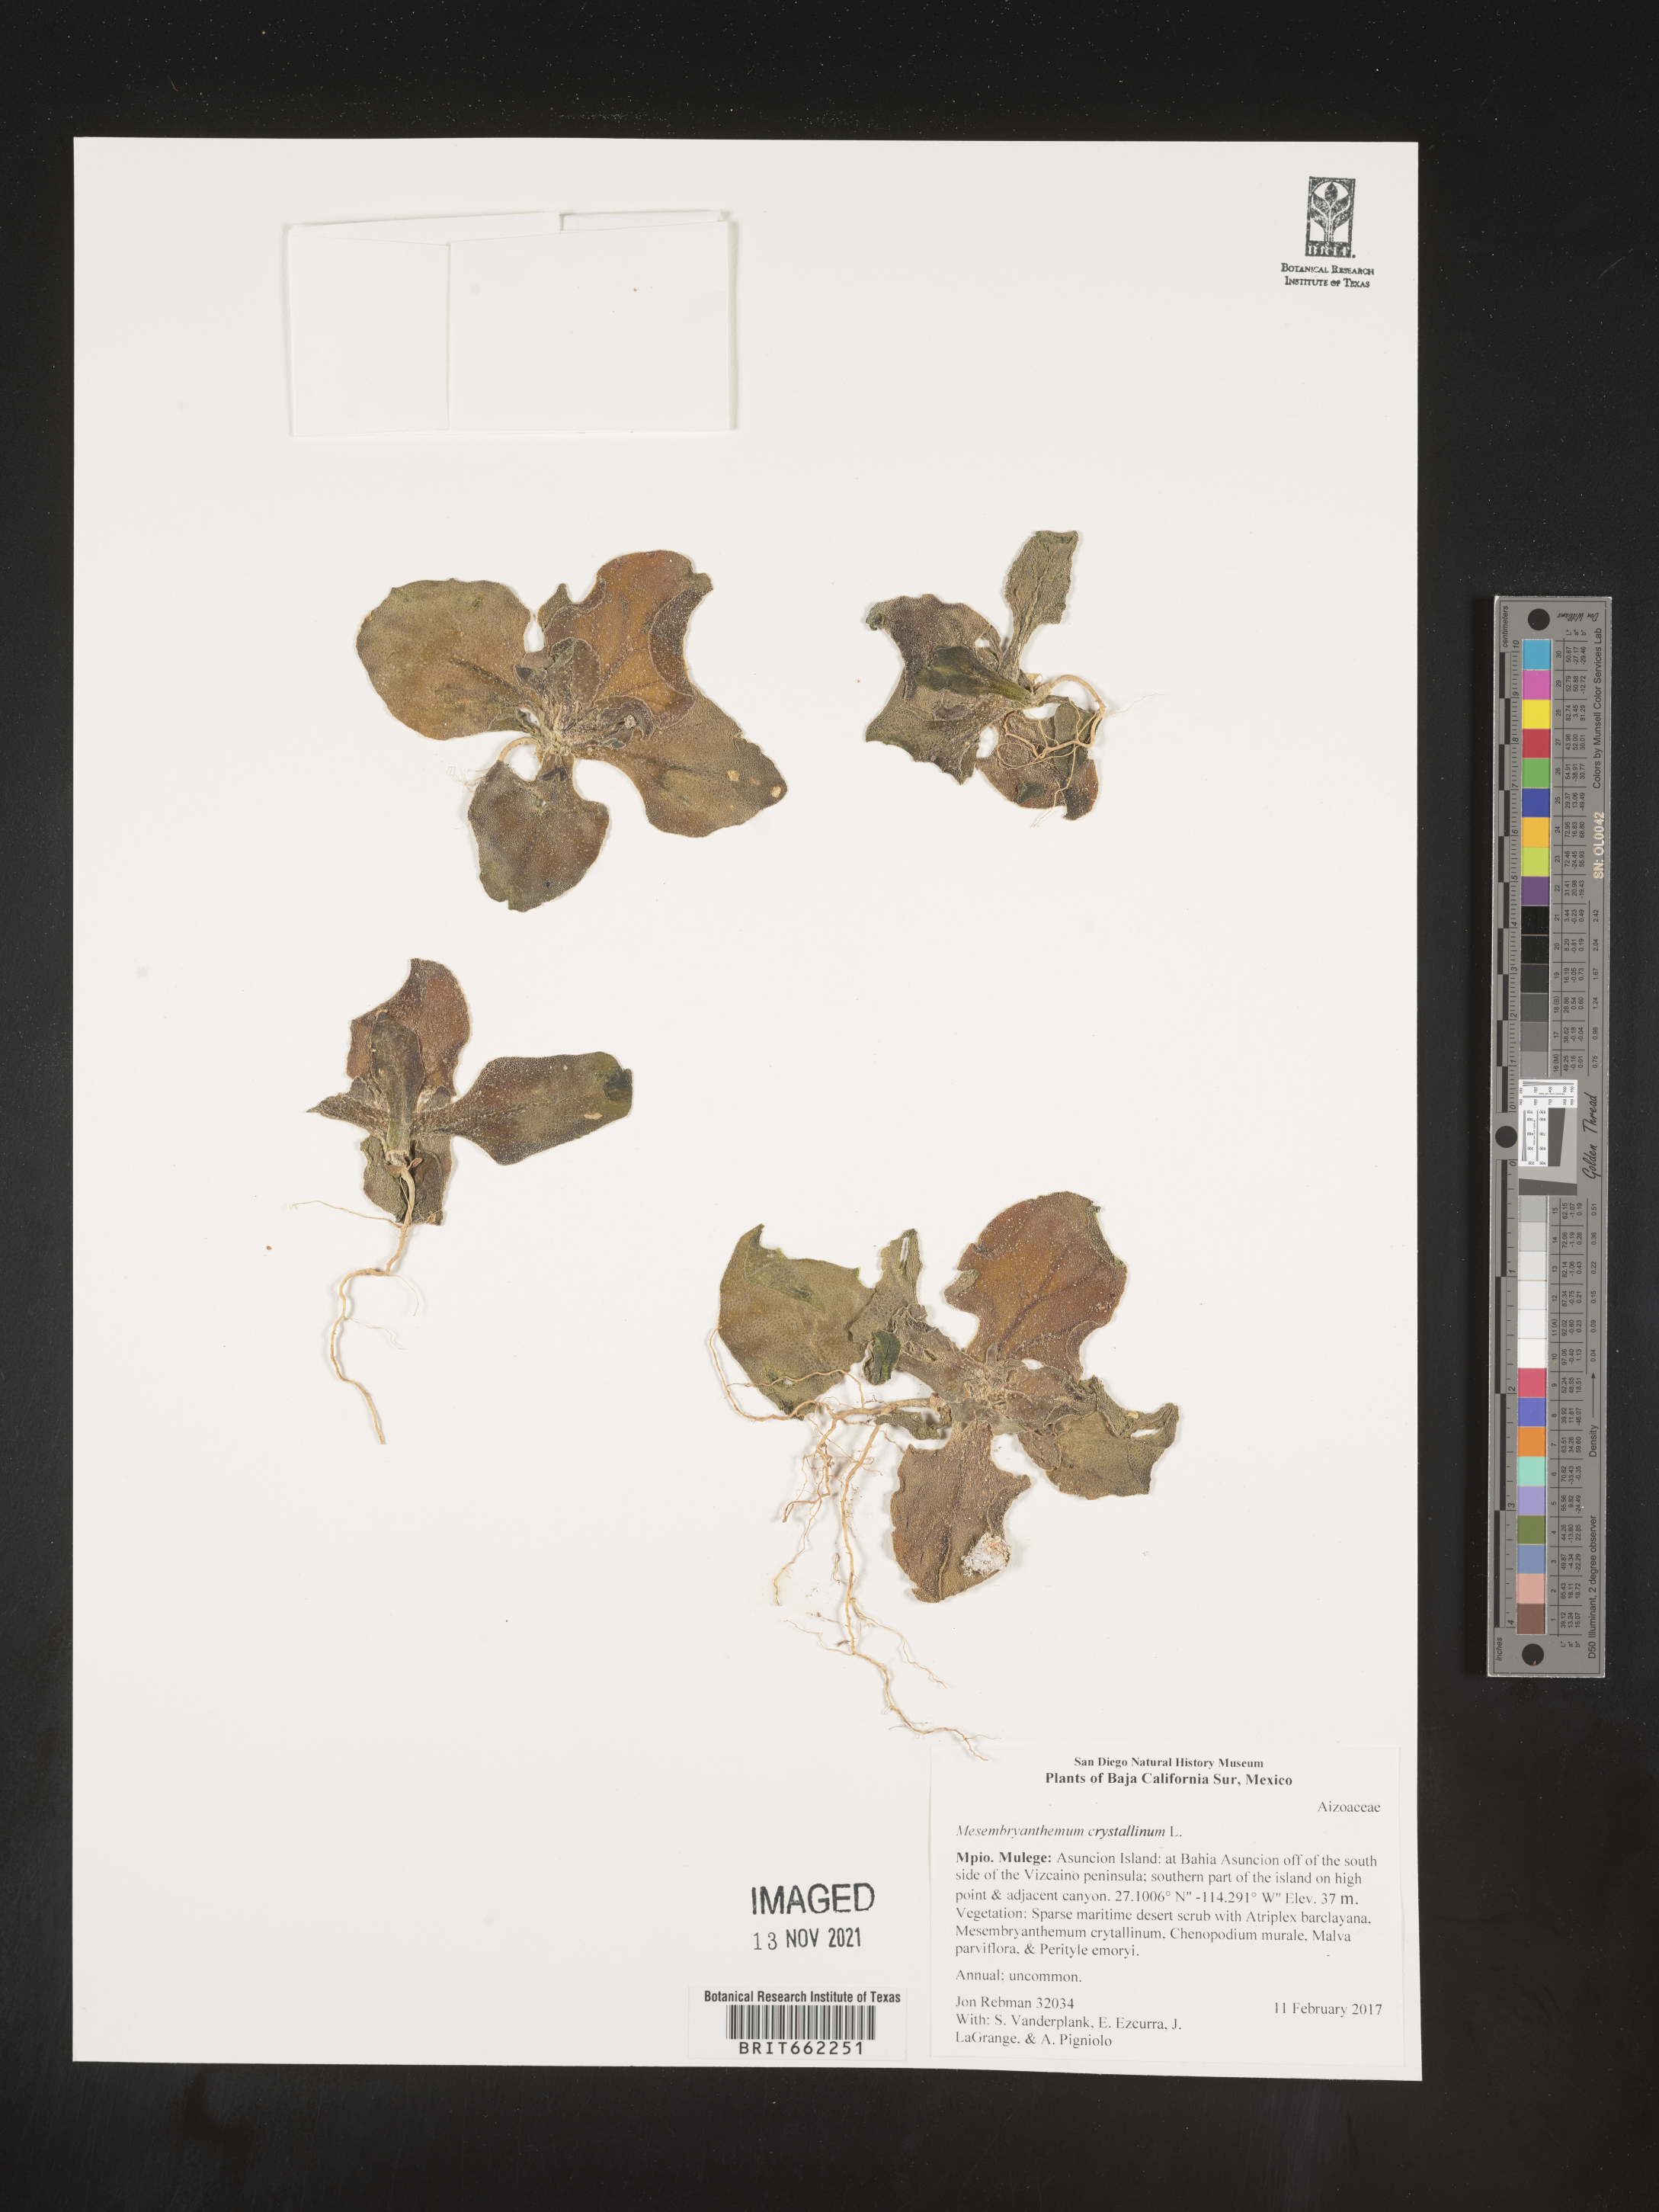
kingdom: Plantae
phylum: Tracheophyta
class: Magnoliopsida
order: Caryophyllales
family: Aizoaceae
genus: Mesembryanthemum
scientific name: Mesembryanthemum
